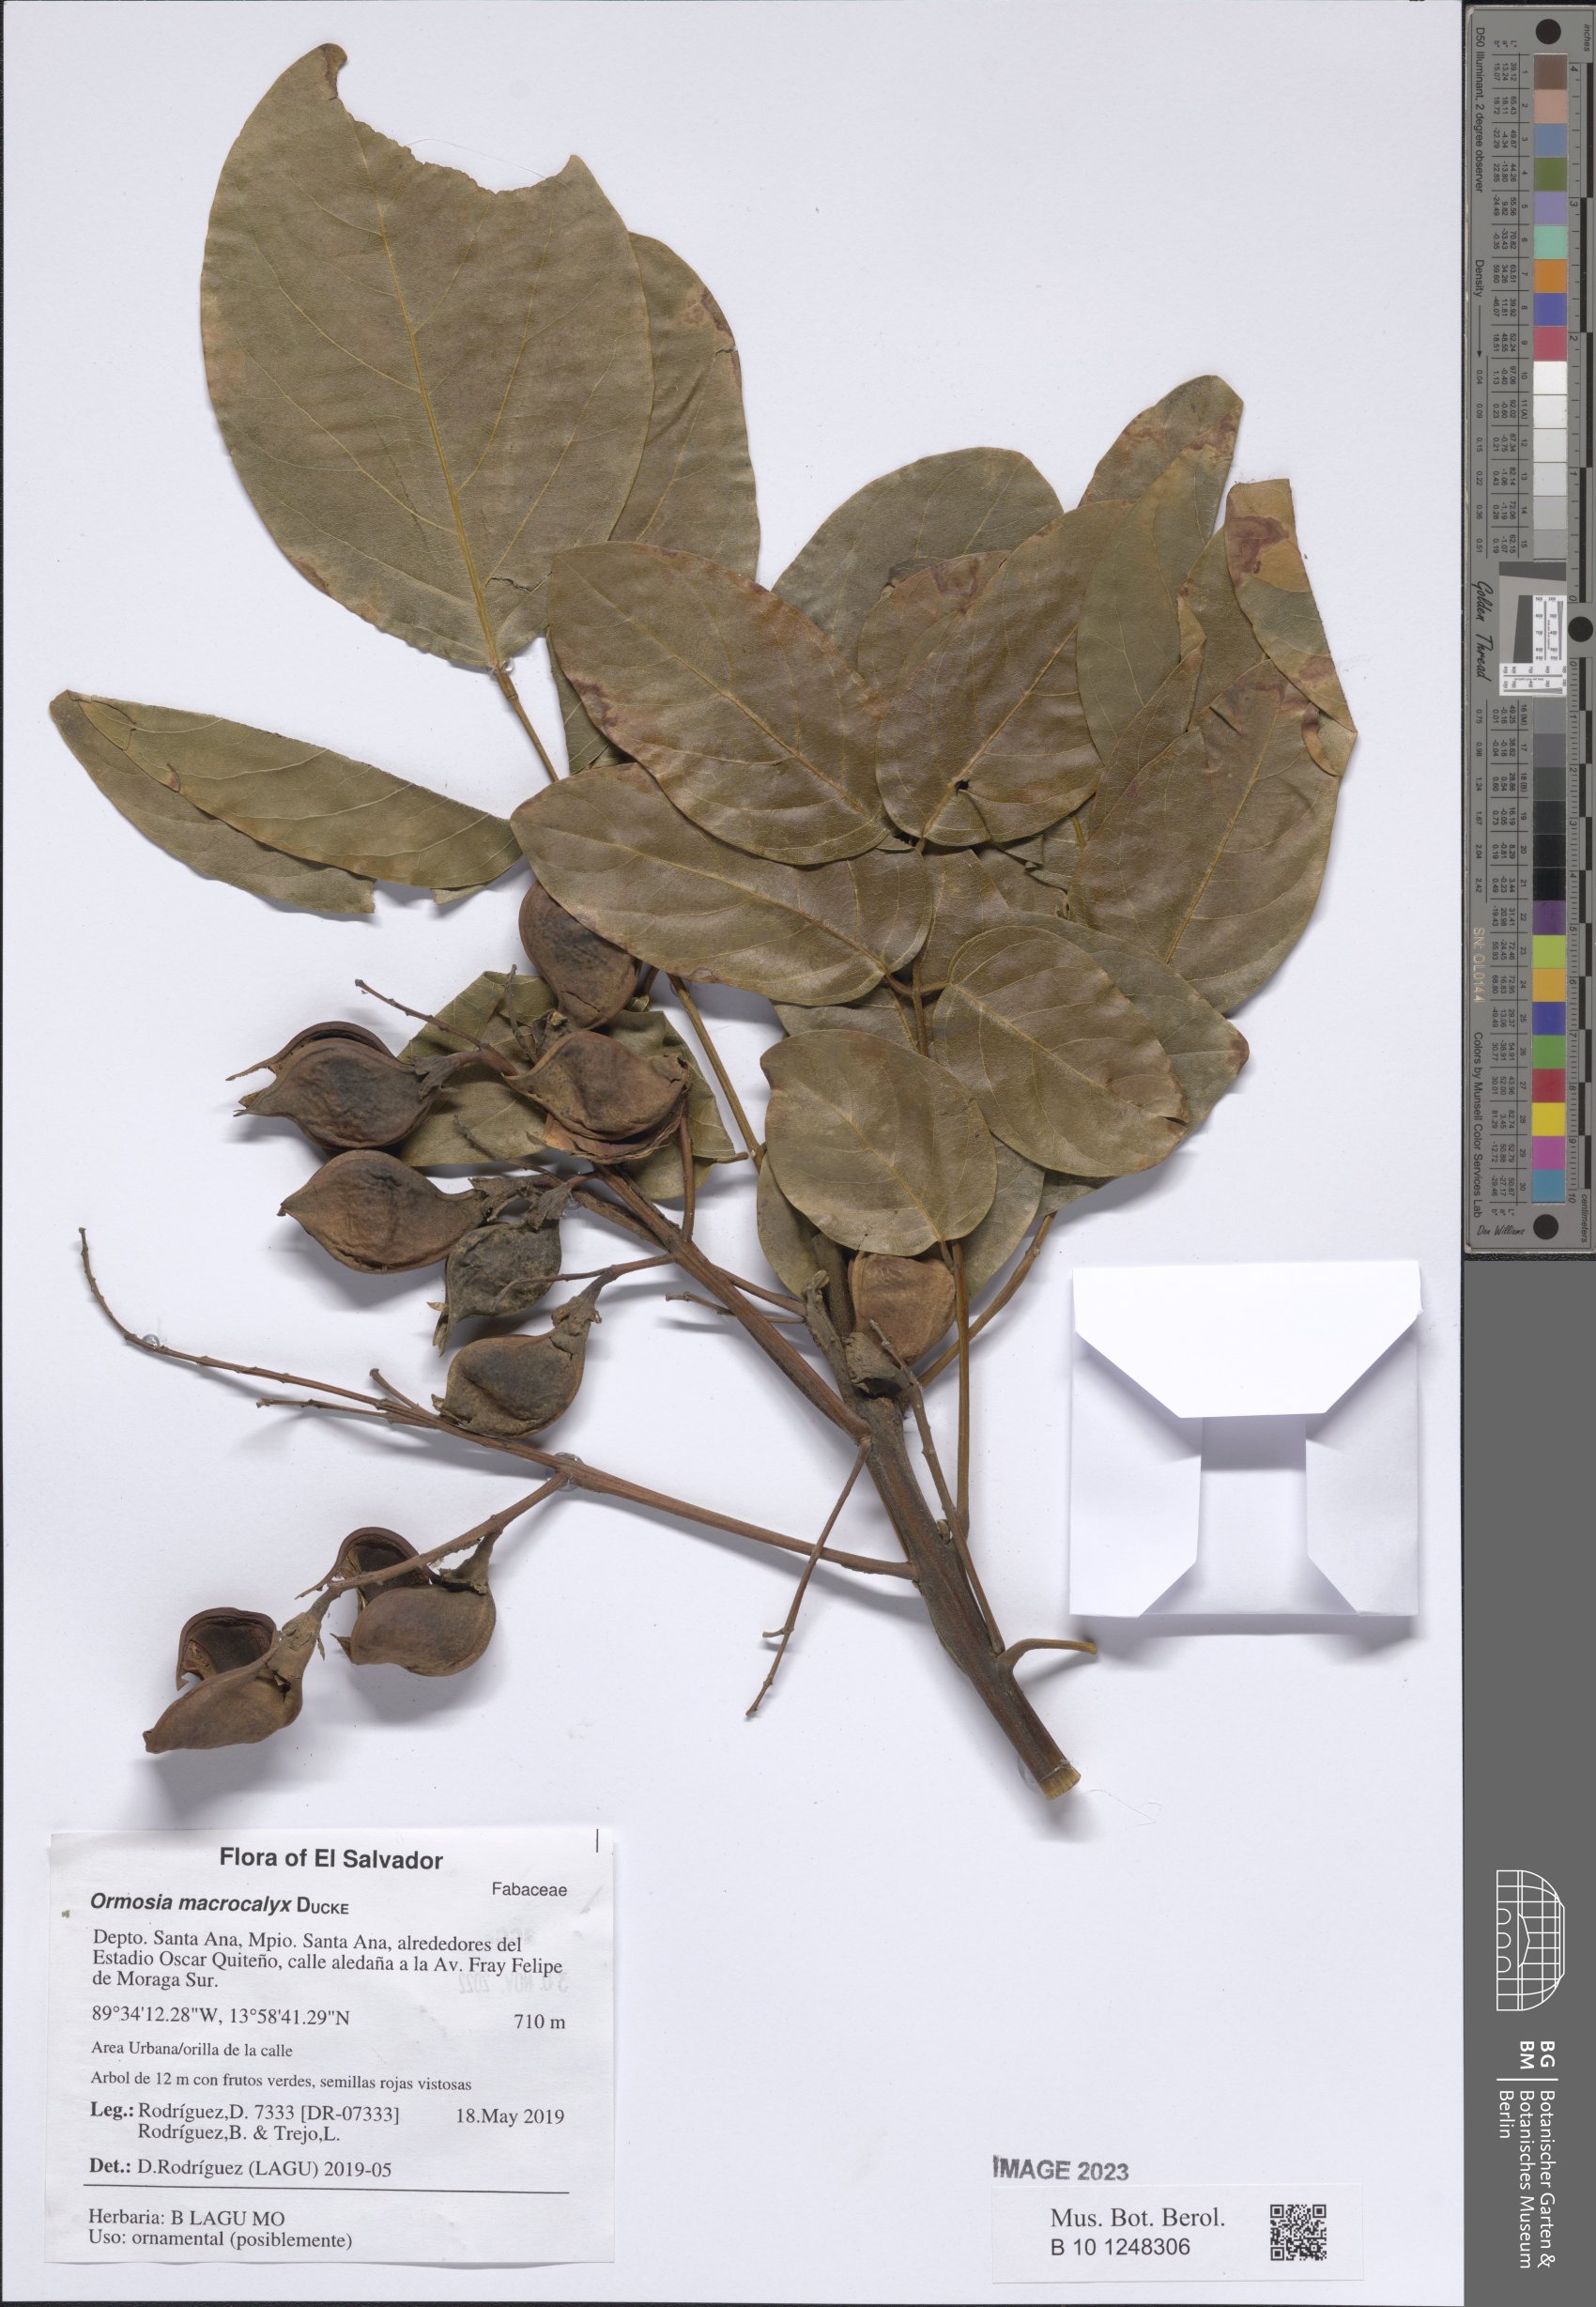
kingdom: Plantae
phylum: Tracheophyta
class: Magnoliopsida
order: Fabales
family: Fabaceae
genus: Ormosia
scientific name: Ormosia macrocalyx
